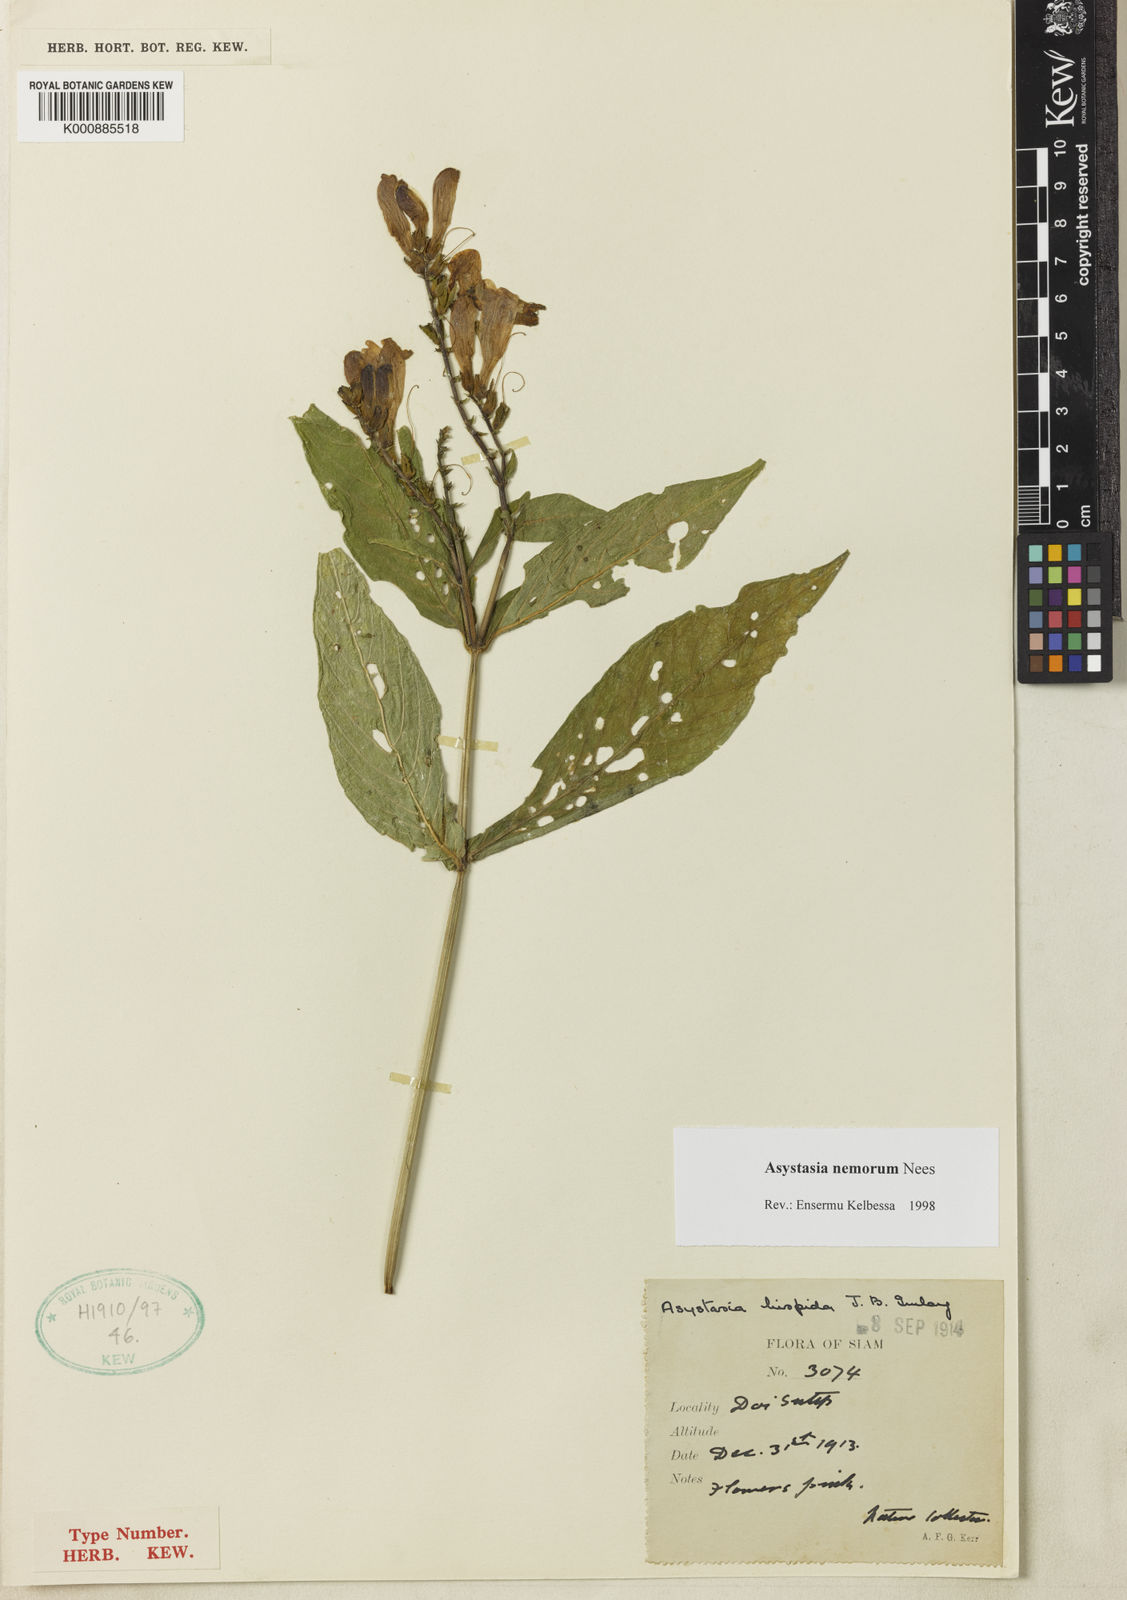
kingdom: Plantae
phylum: Tracheophyta
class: Magnoliopsida
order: Lamiales
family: Acanthaceae
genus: Asystasia
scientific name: Asystasia nemorum
